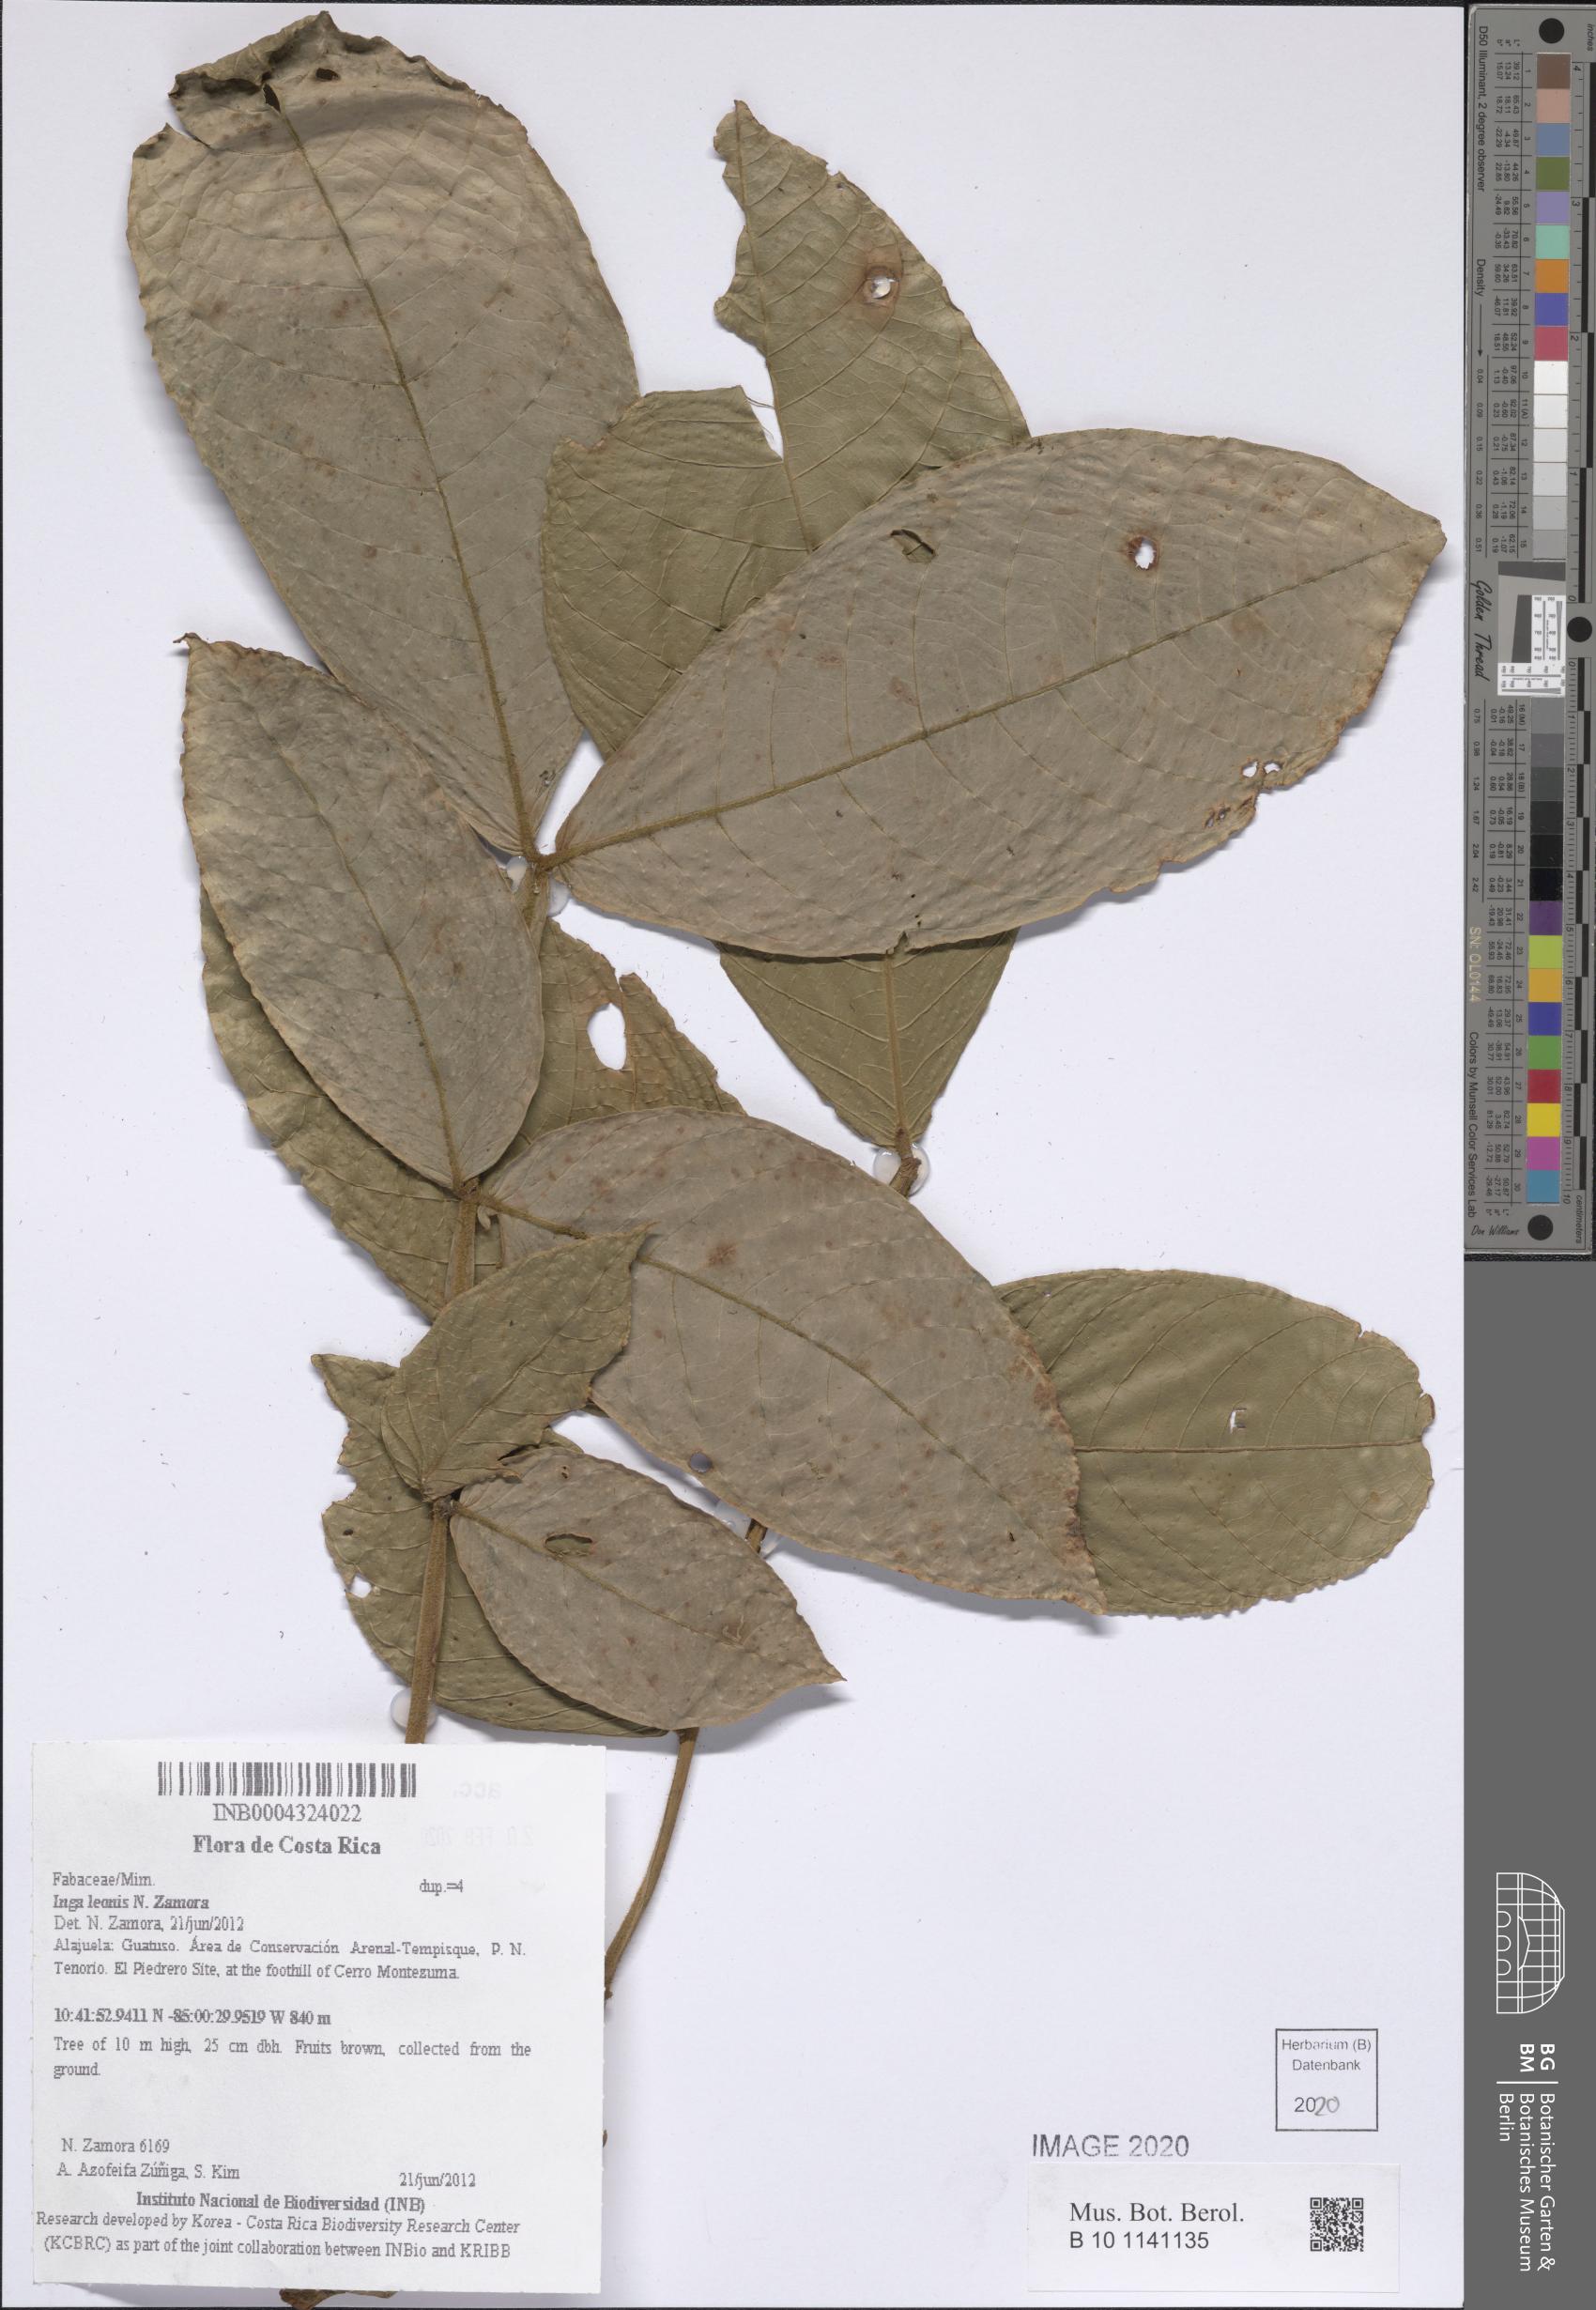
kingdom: Plantae
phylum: Tracheophyta
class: Magnoliopsida
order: Fabales
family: Fabaceae
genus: Inga
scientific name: Inga leonis
